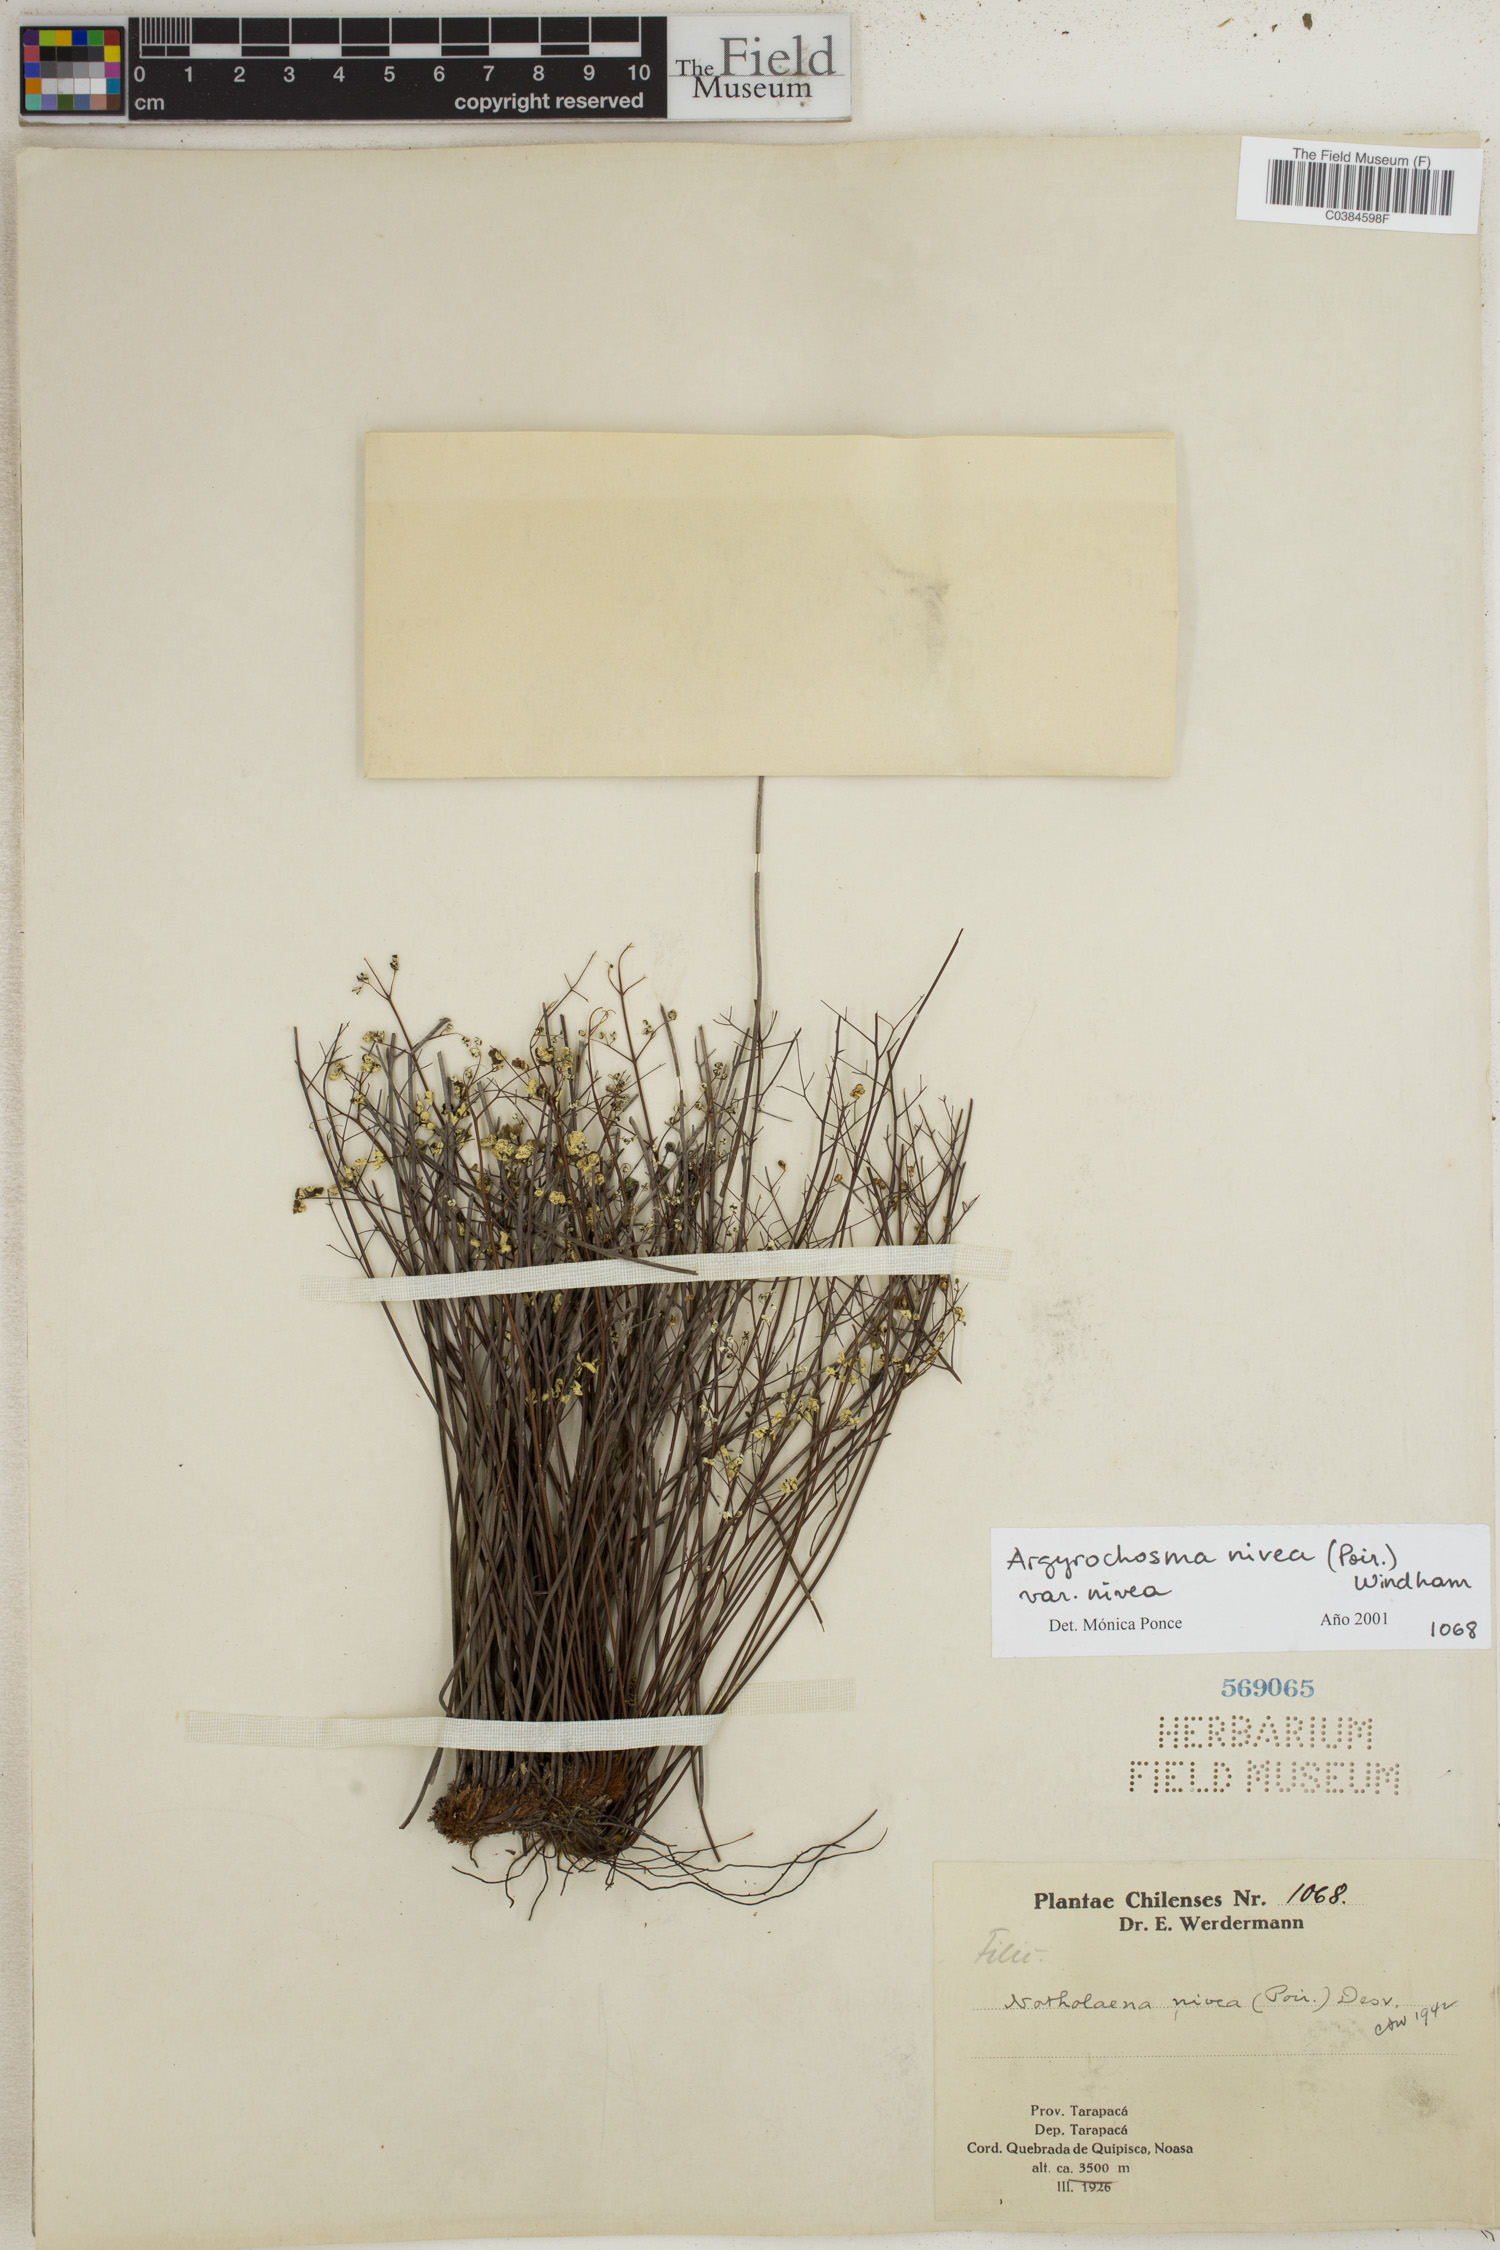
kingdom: Plantae
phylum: Tracheophyta
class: Polypodiopsida
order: Polypodiales
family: Pteridaceae
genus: Argyrochosma
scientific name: Argyrochosma nivea
